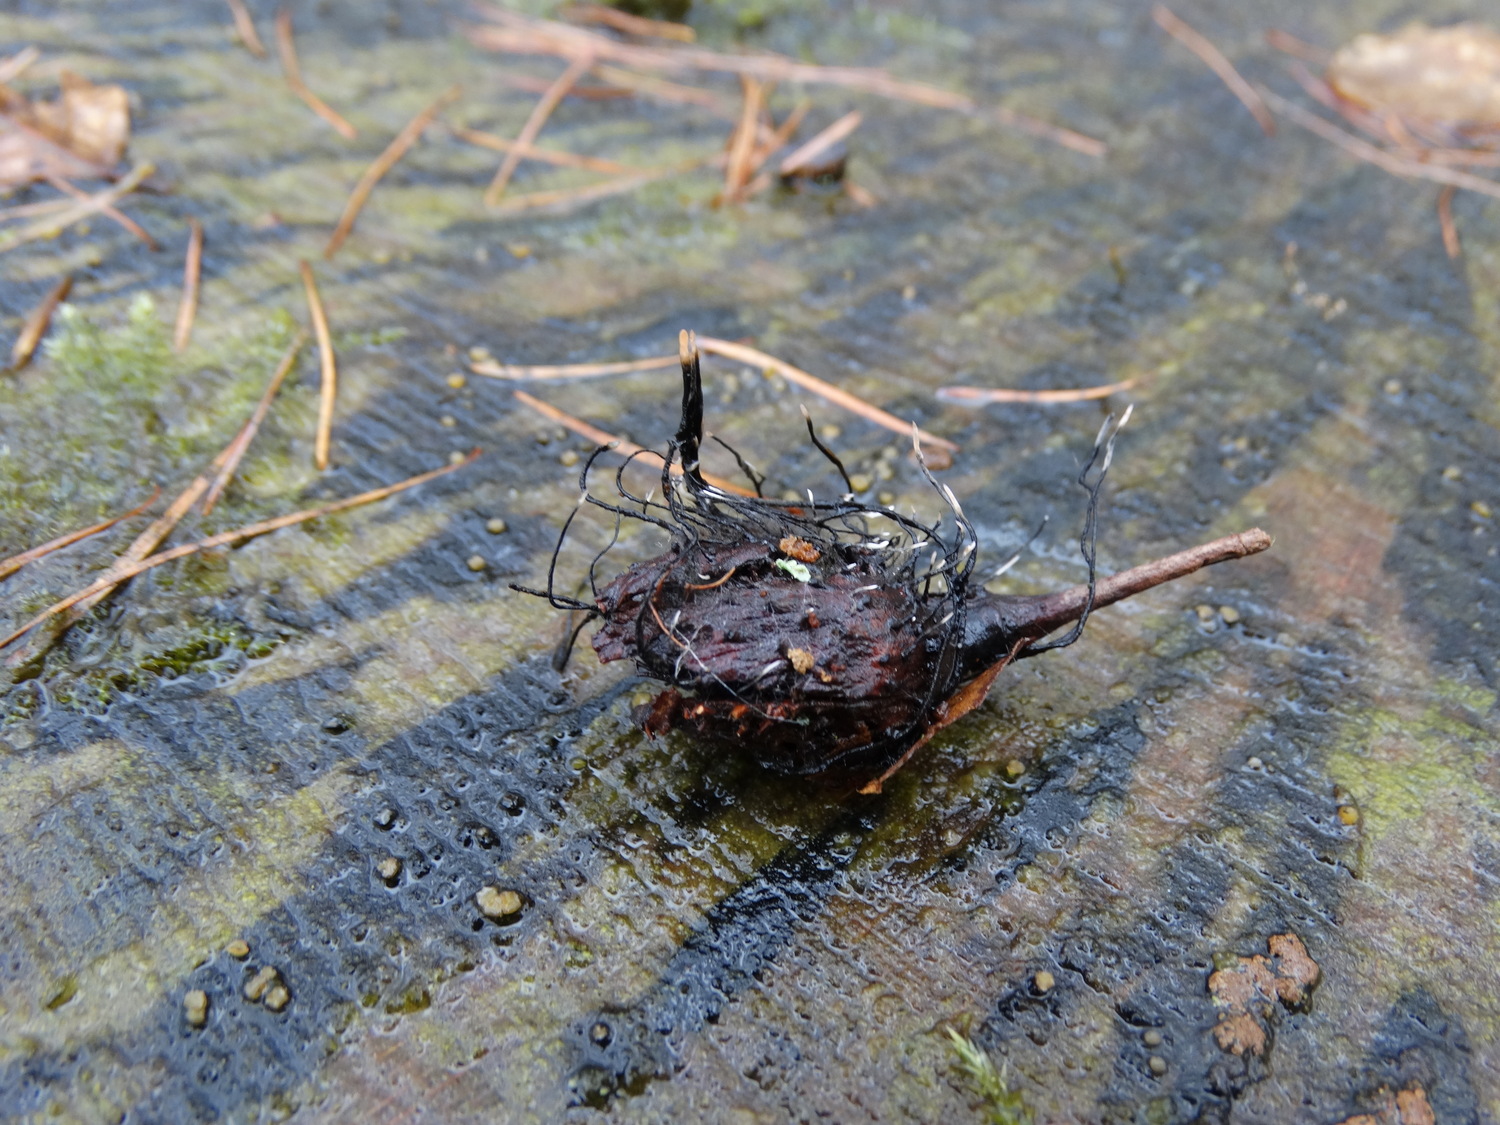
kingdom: Fungi
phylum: Ascomycota
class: Sordariomycetes
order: Xylariales
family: Xylariaceae
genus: Xylaria
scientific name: Xylaria carpophila
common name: bogskål-stødsvamp
